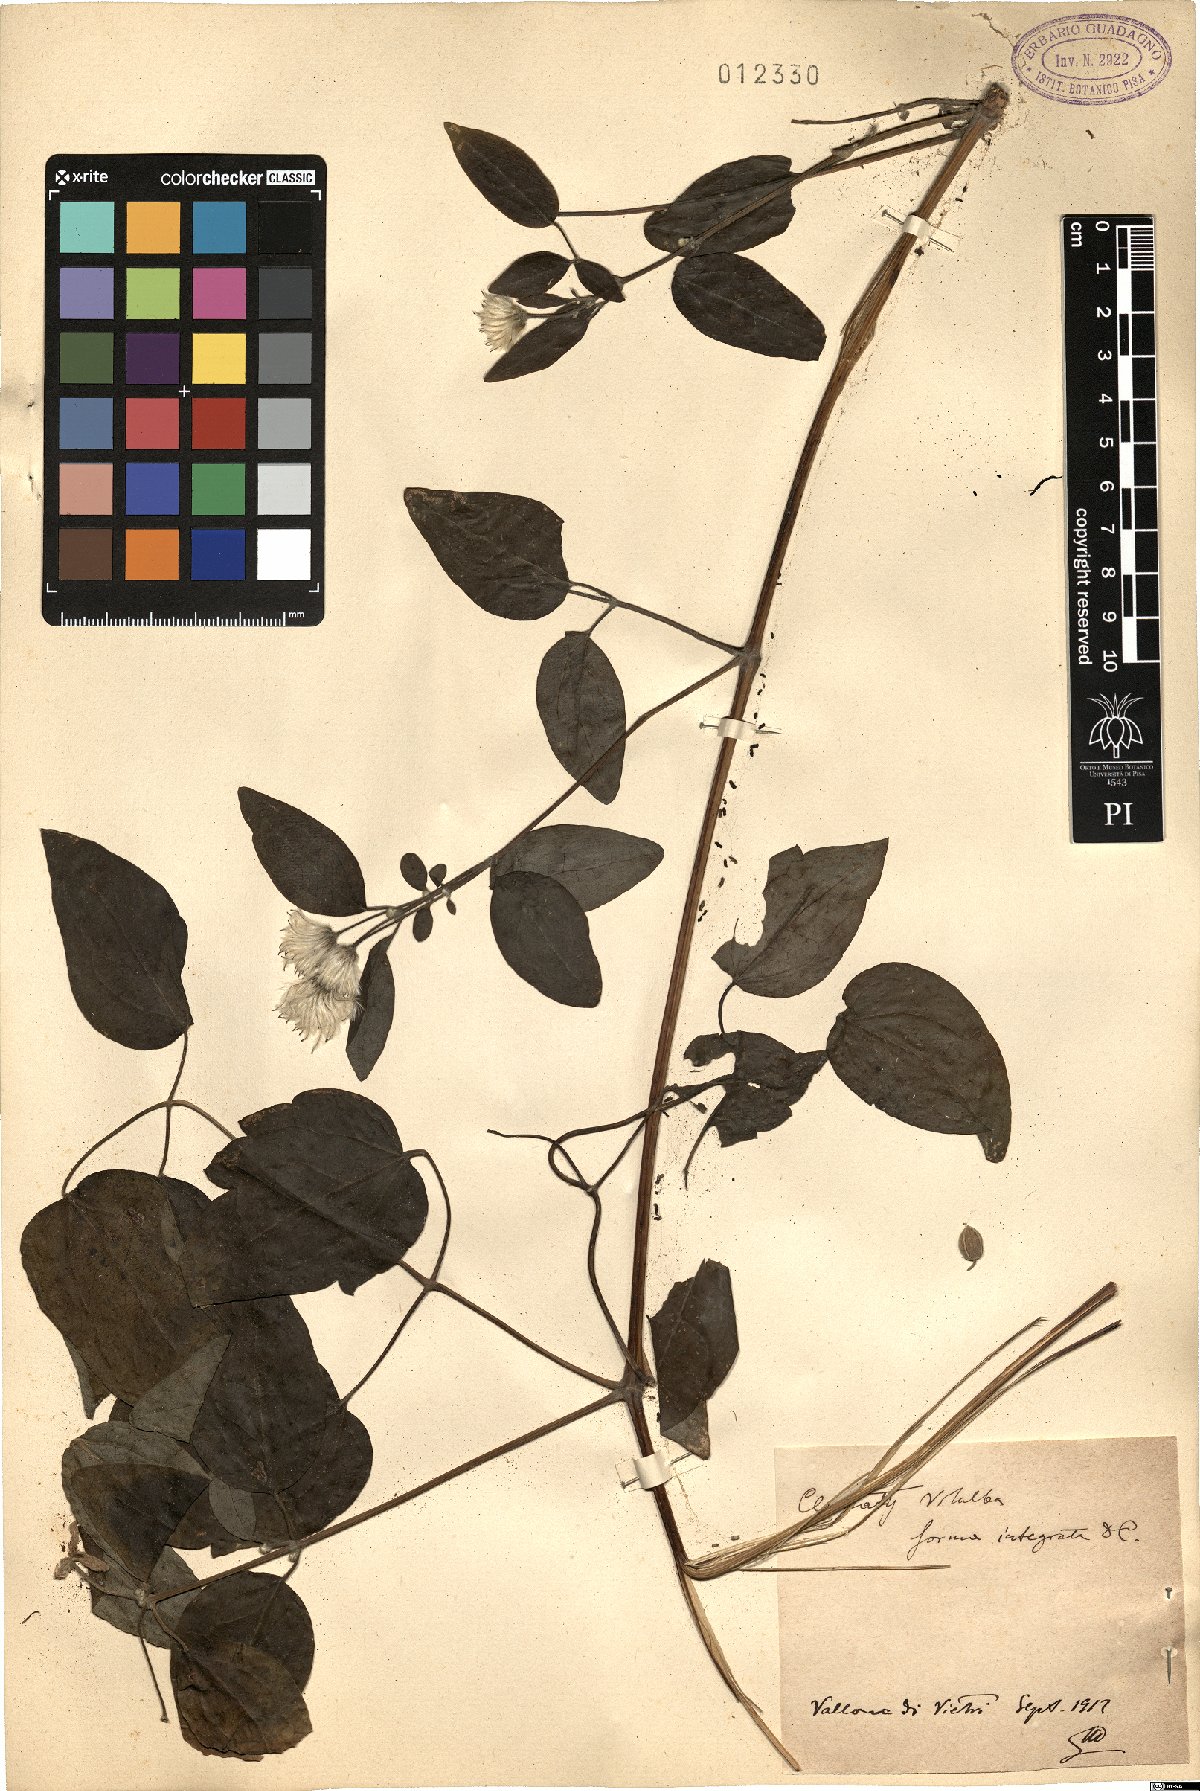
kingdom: Plantae
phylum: Tracheophyta
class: Magnoliopsida
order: Ranunculales
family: Ranunculaceae
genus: Clematis
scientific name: Clematis vitalba
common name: Evergreen clematis
